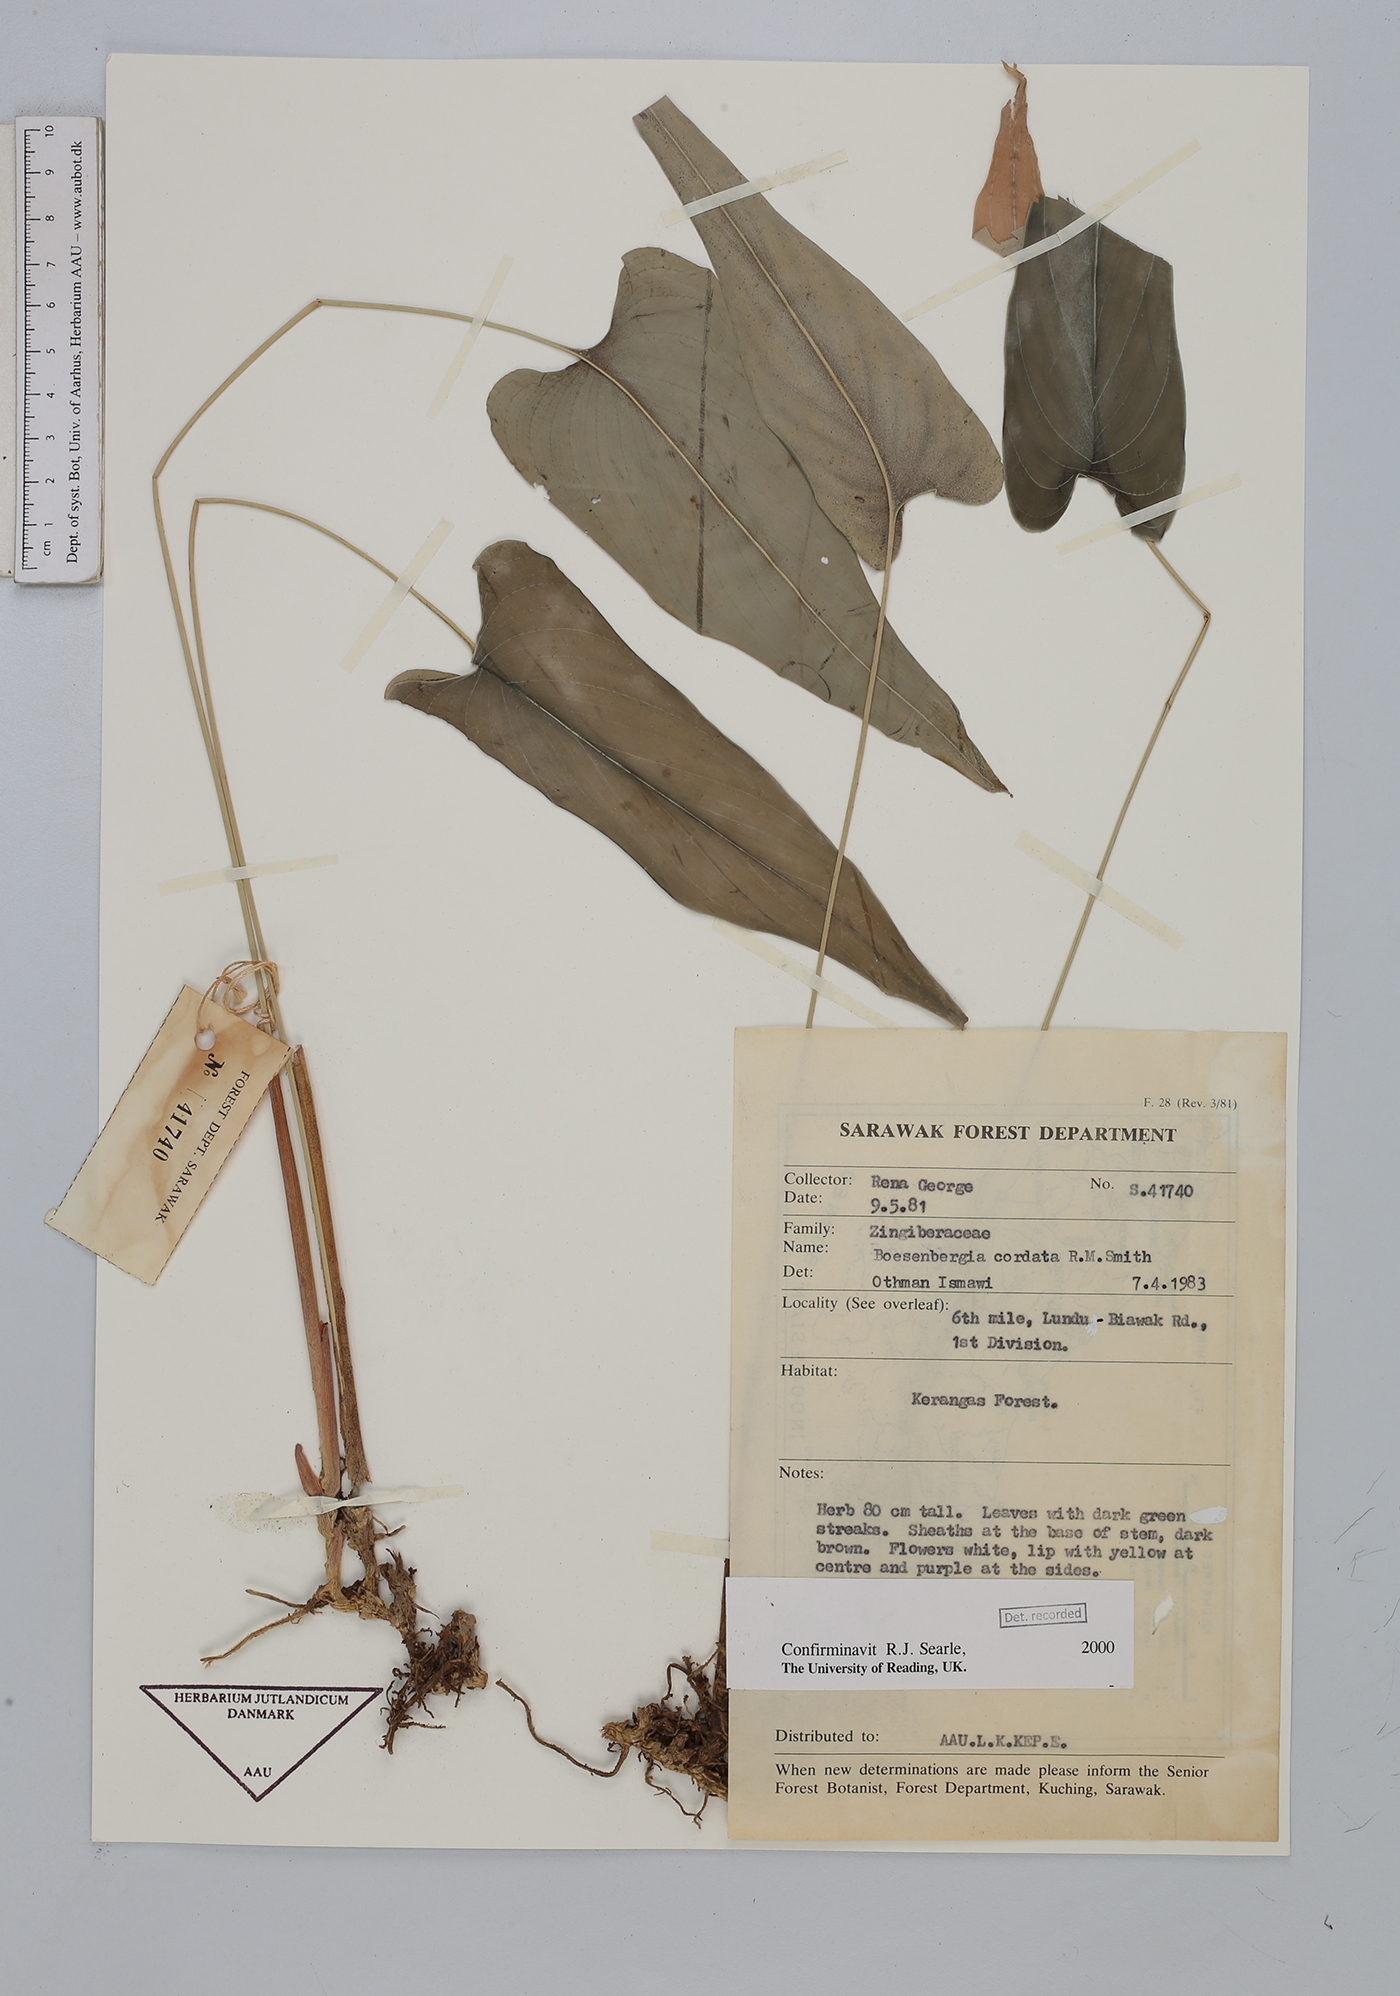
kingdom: Plantae
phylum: Tracheophyta
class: Liliopsida
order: Zingiberales
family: Zingiberaceae
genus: Boesenbergia
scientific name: Boesenbergia cordata
